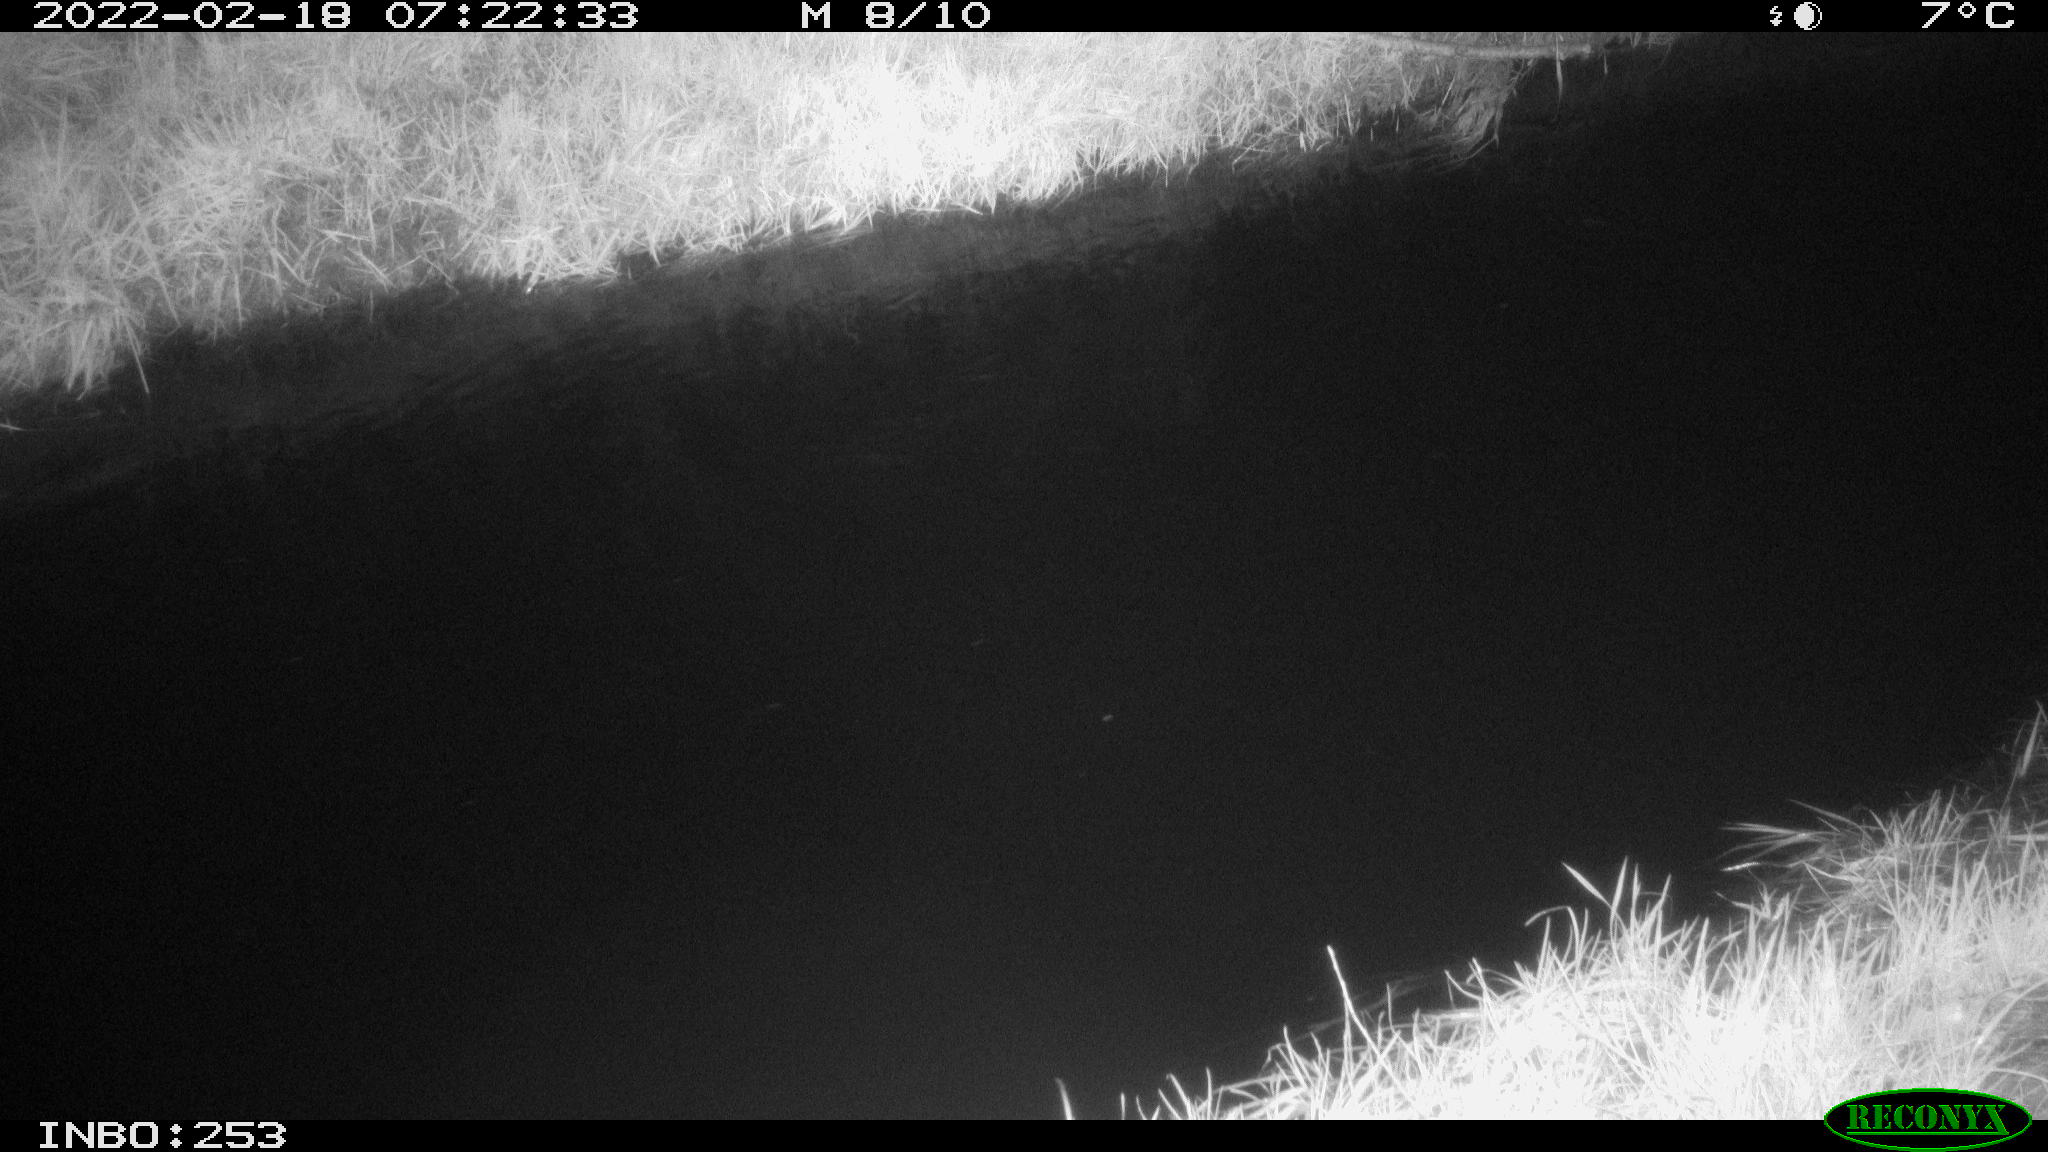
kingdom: Animalia
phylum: Chordata
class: Aves
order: Anseriformes
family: Anatidae
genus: Anas
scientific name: Anas platyrhynchos
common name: Mallard
